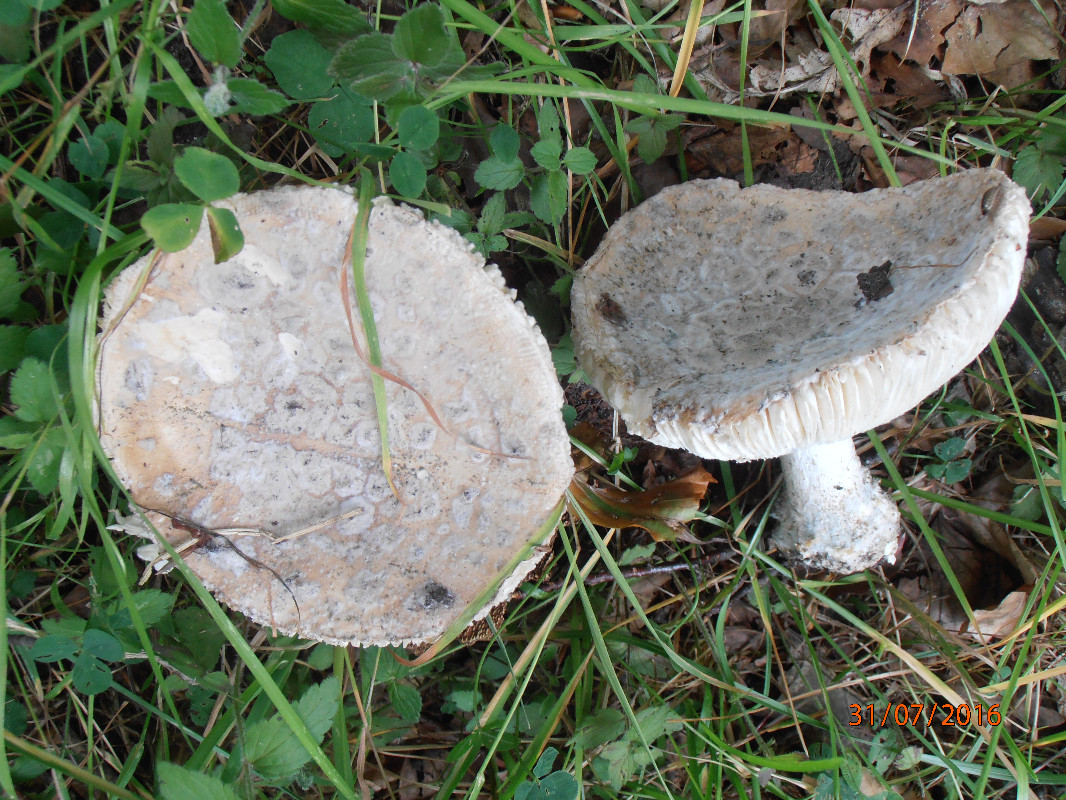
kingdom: Fungi
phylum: Basidiomycota
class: Agaricomycetes
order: Agaricales
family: Amanitaceae
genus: Amanita
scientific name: Amanita
